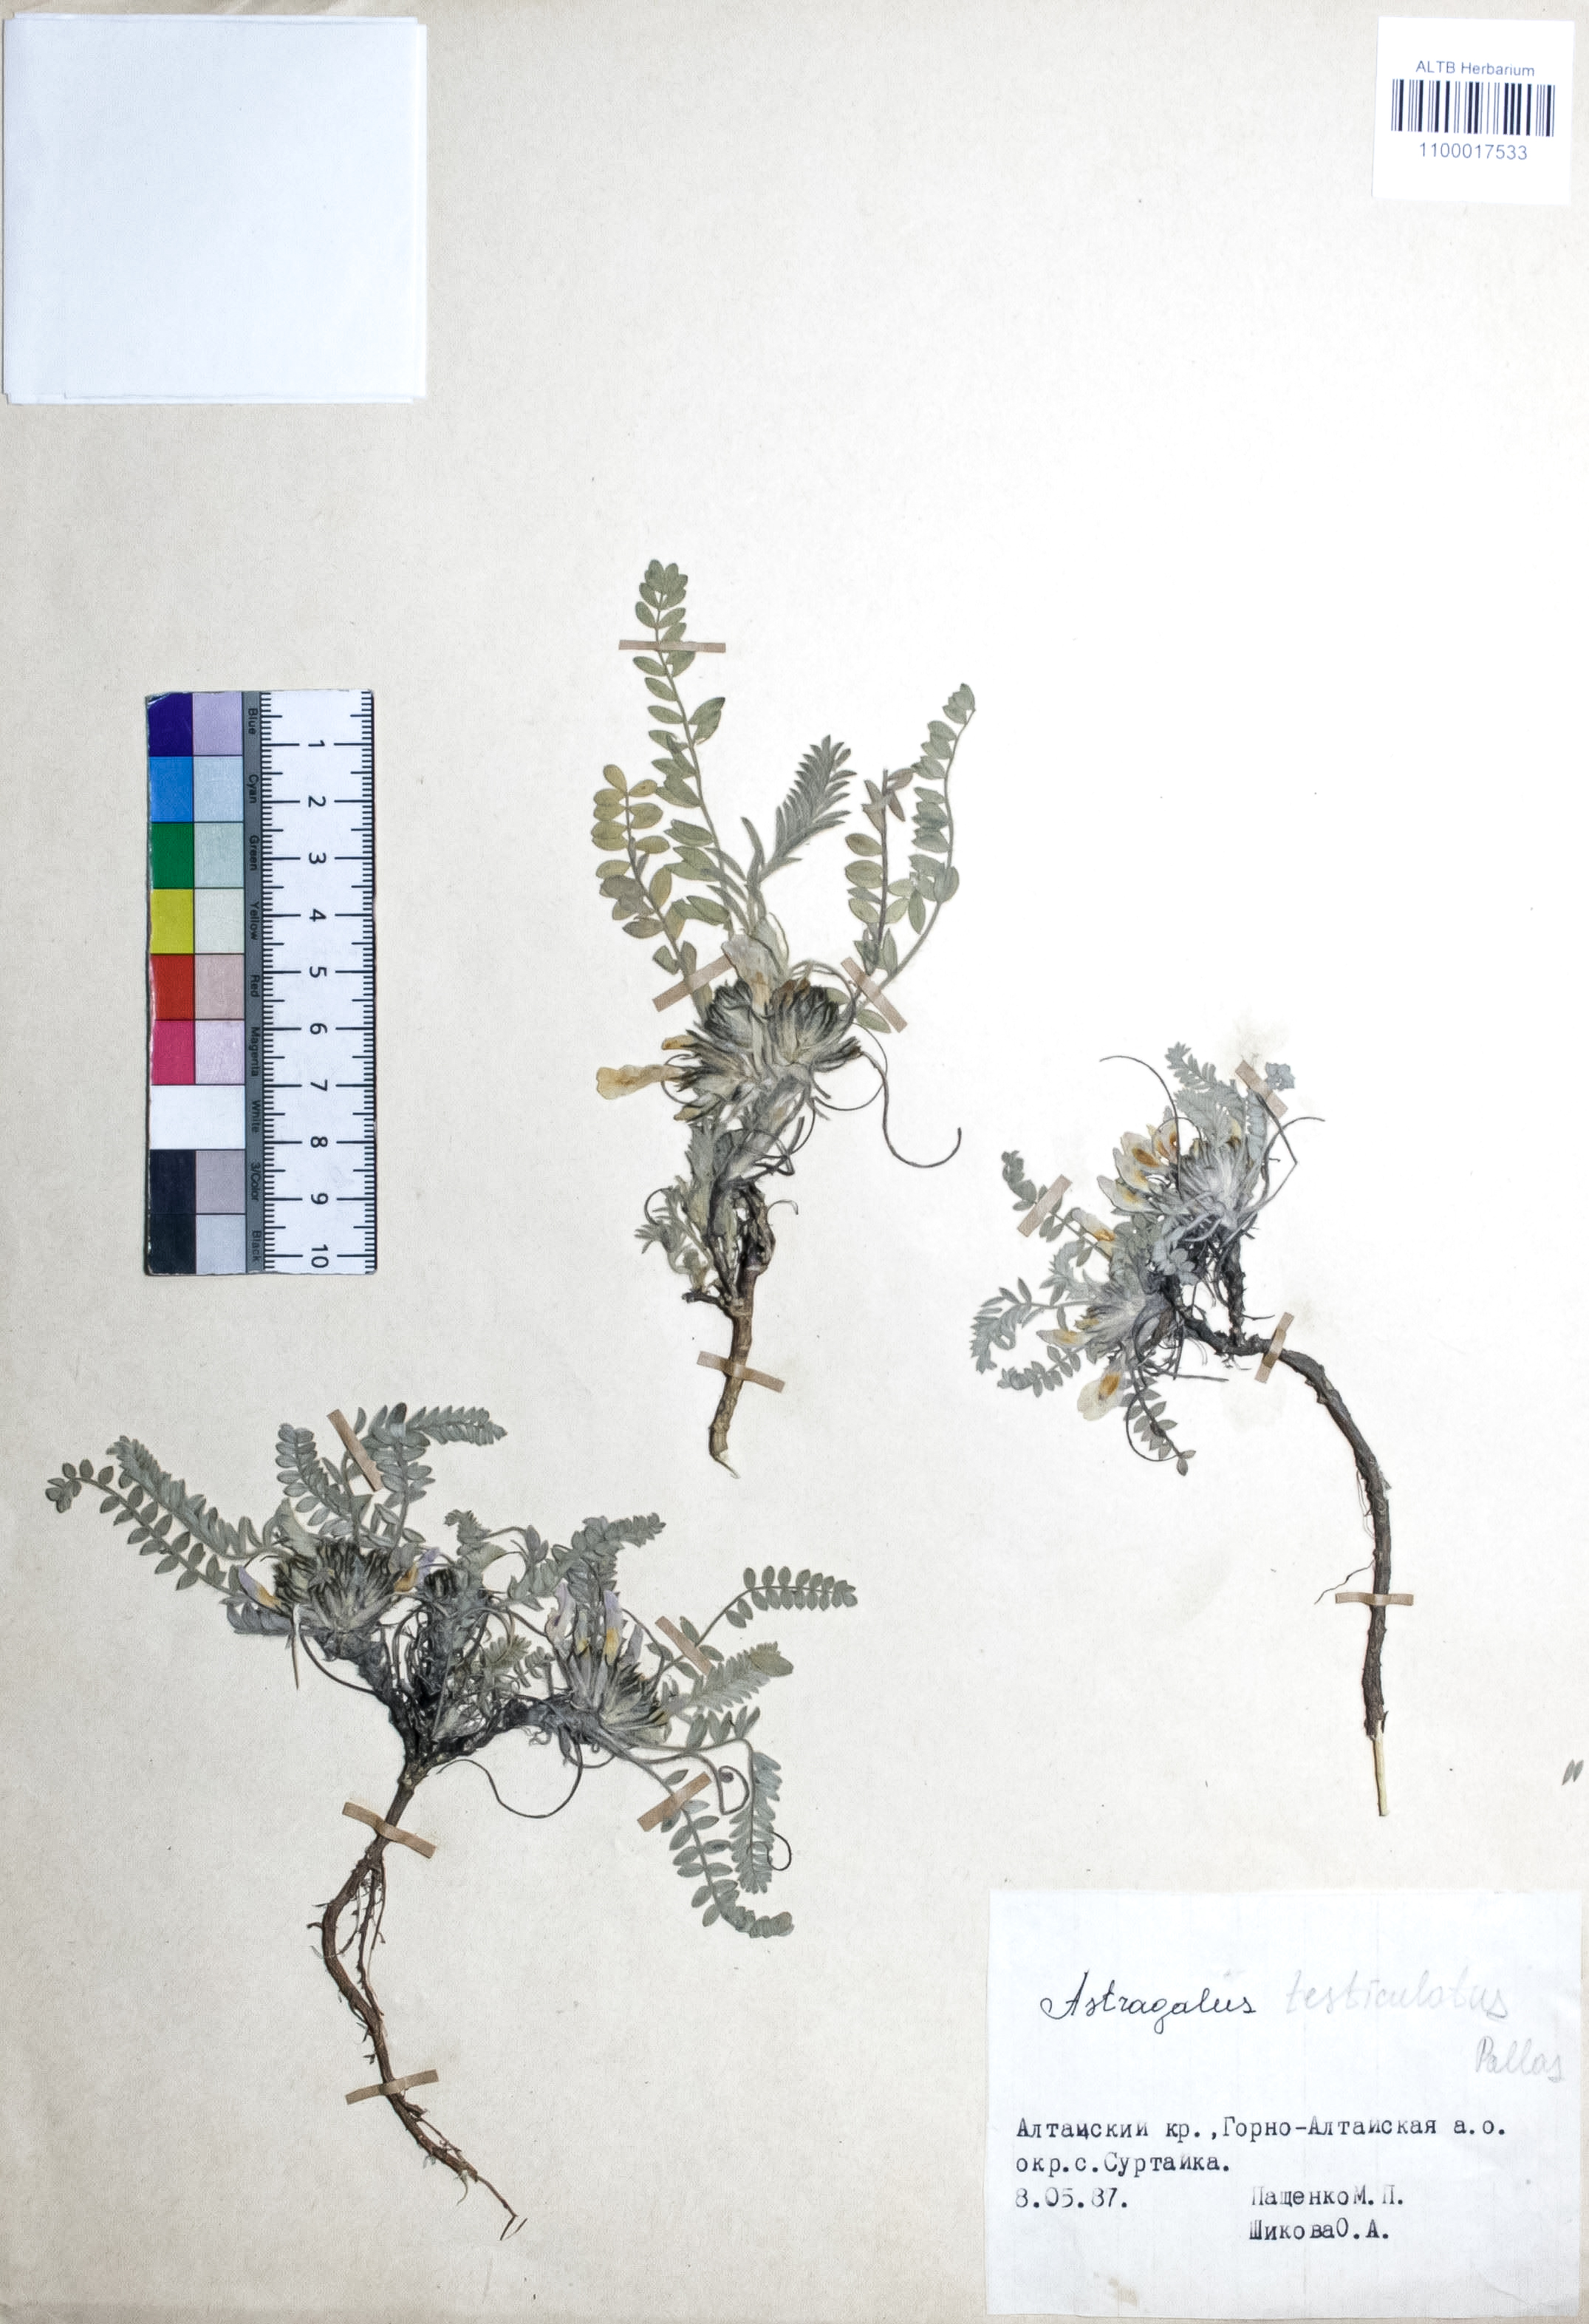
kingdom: Plantae
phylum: Tracheophyta
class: Magnoliopsida
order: Fabales
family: Fabaceae
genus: Astragalus
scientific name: Astragalus testiculatus
